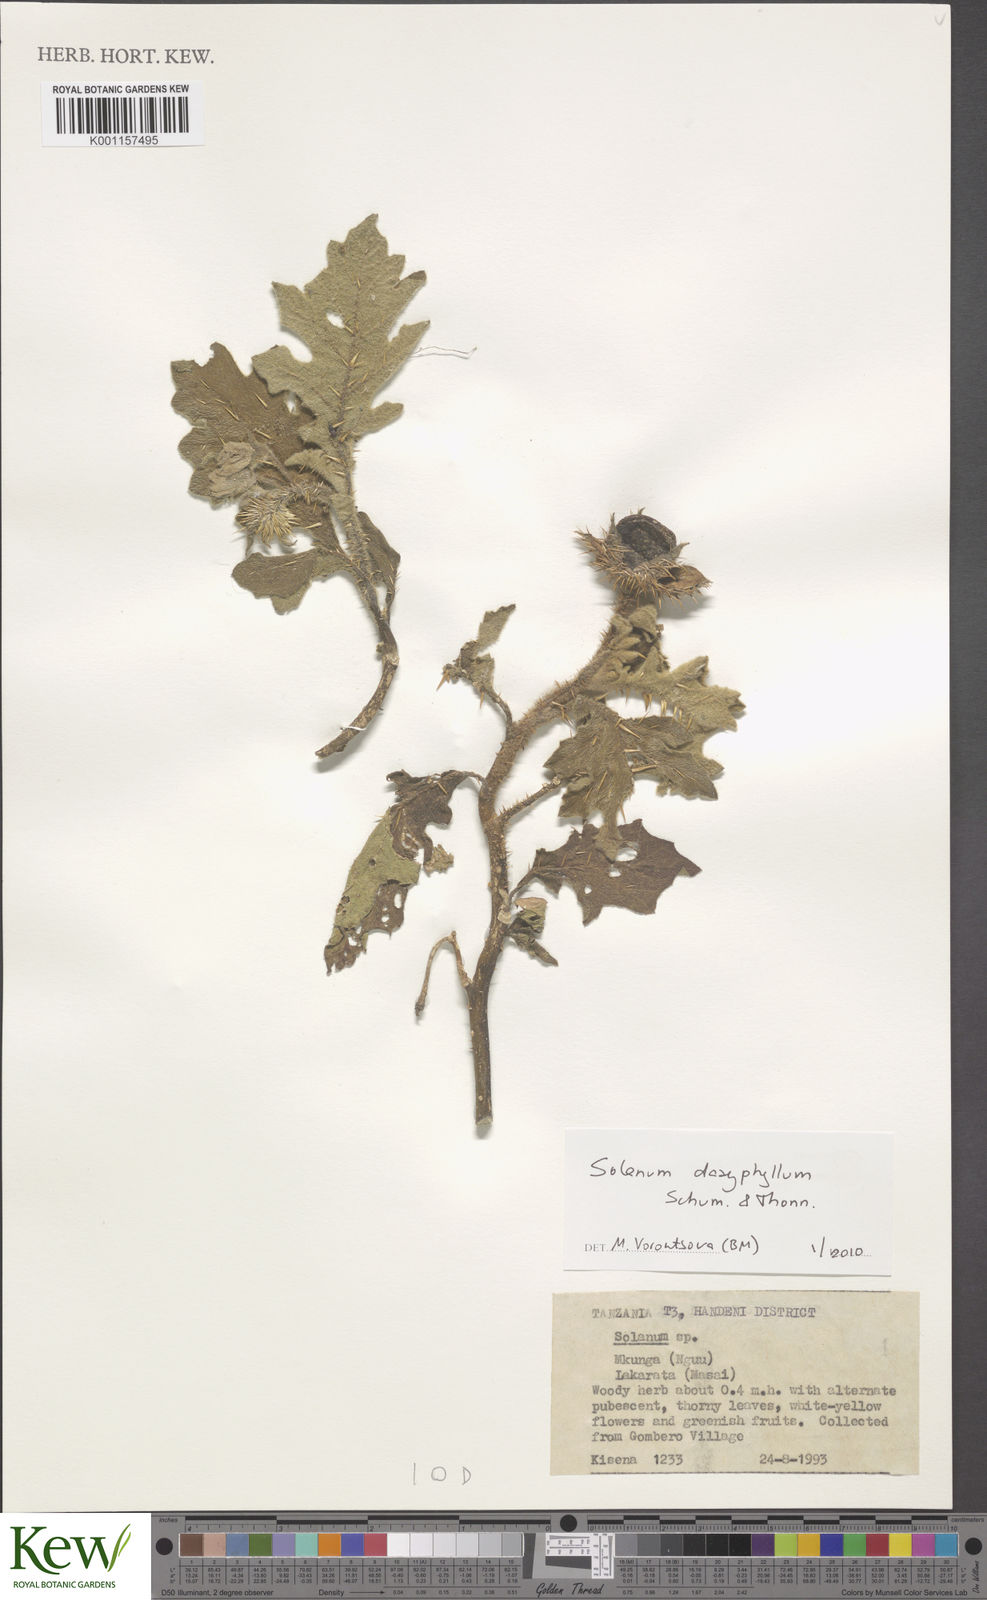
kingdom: Plantae
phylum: Tracheophyta
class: Magnoliopsida
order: Solanales
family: Solanaceae
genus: Solanum
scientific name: Solanum dasyphyllum
